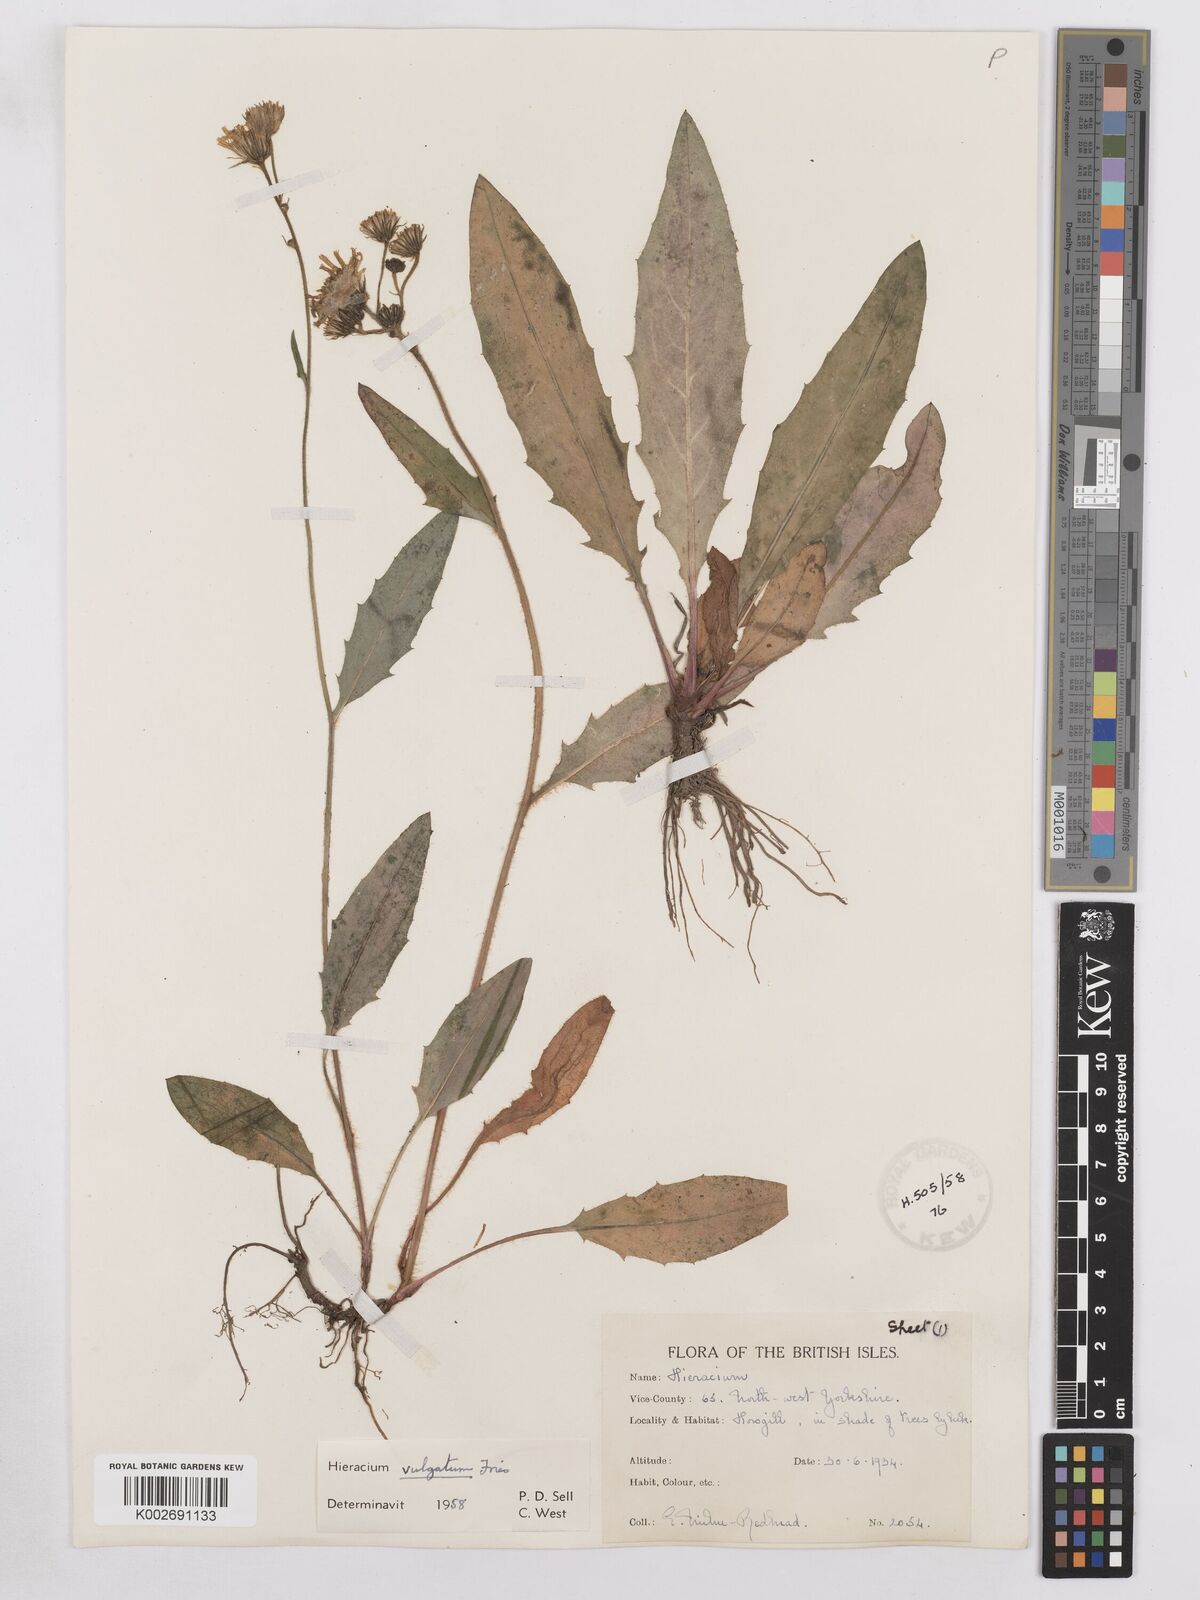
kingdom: Plantae
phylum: Tracheophyta
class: Magnoliopsida
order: Asterales
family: Asteraceae
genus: Hieracium
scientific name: Hieracium lachenalii
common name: Common hawkweed
